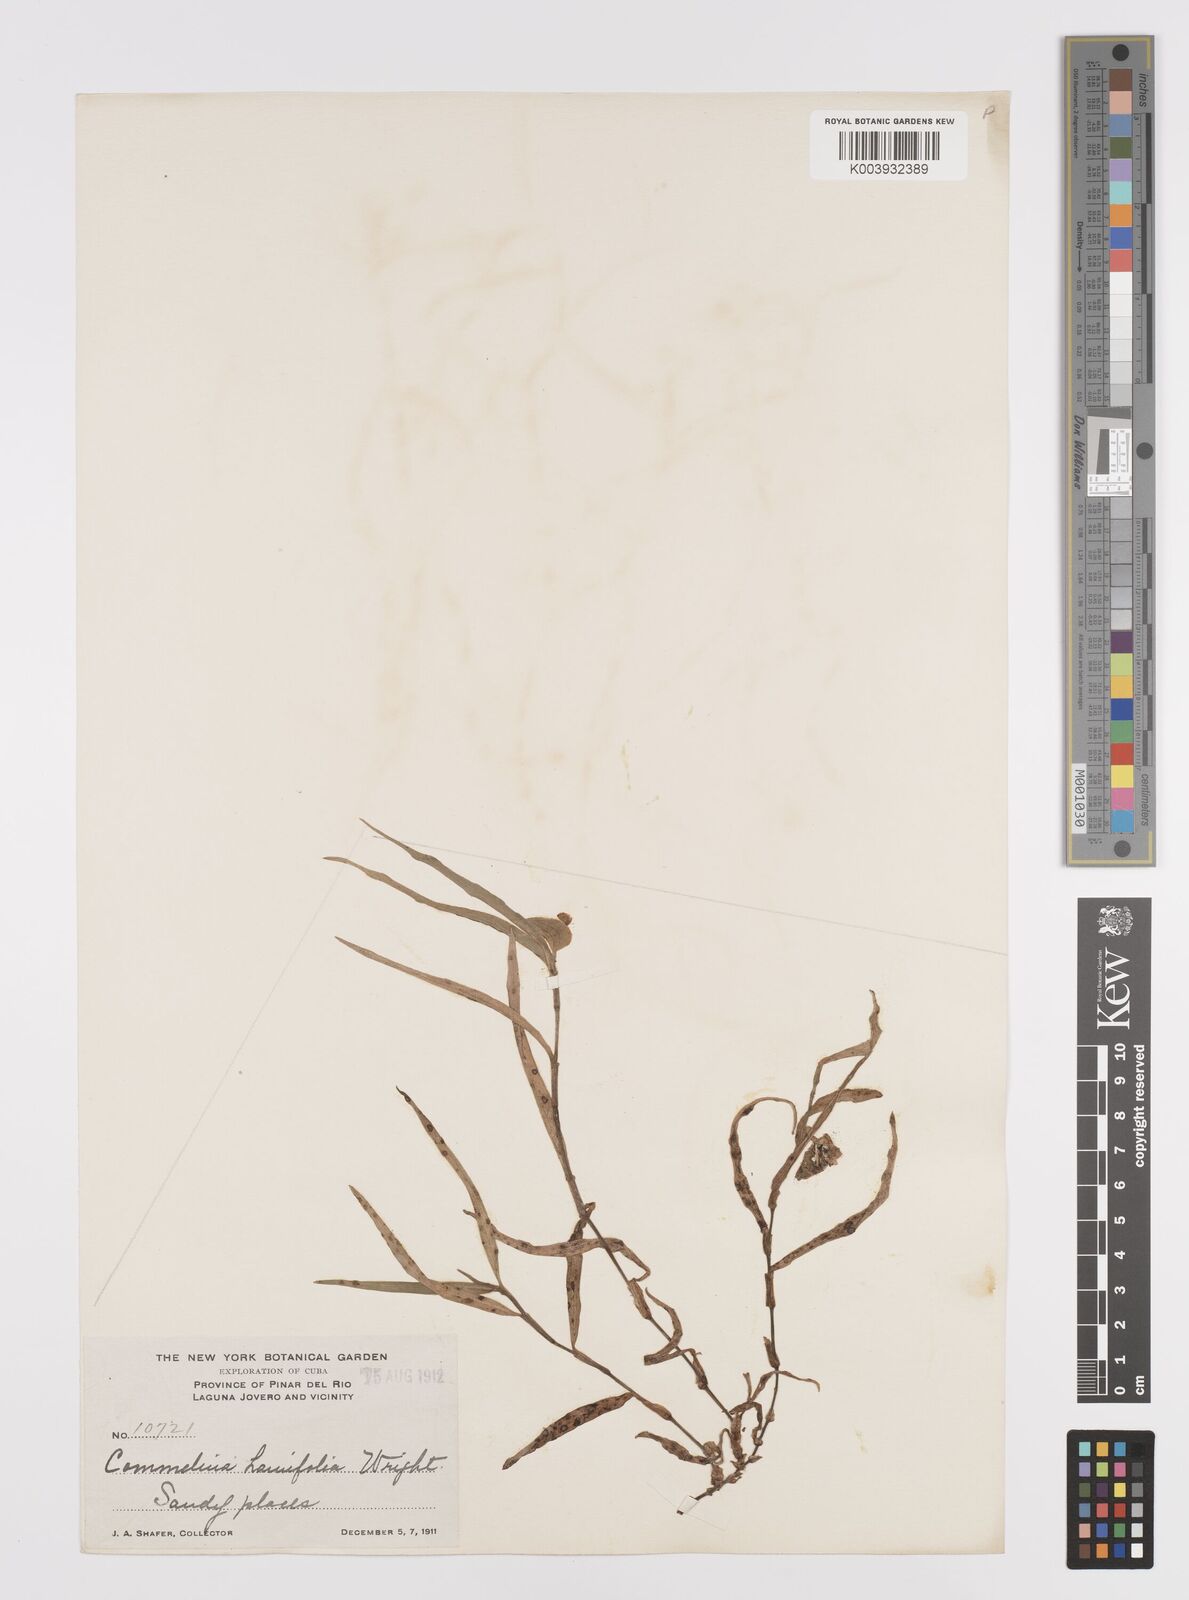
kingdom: Plantae
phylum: Tracheophyta
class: Liliopsida
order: Commelinales
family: Commelinaceae
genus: Commelina
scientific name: Commelina erecta
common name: Blousel blommetjie
